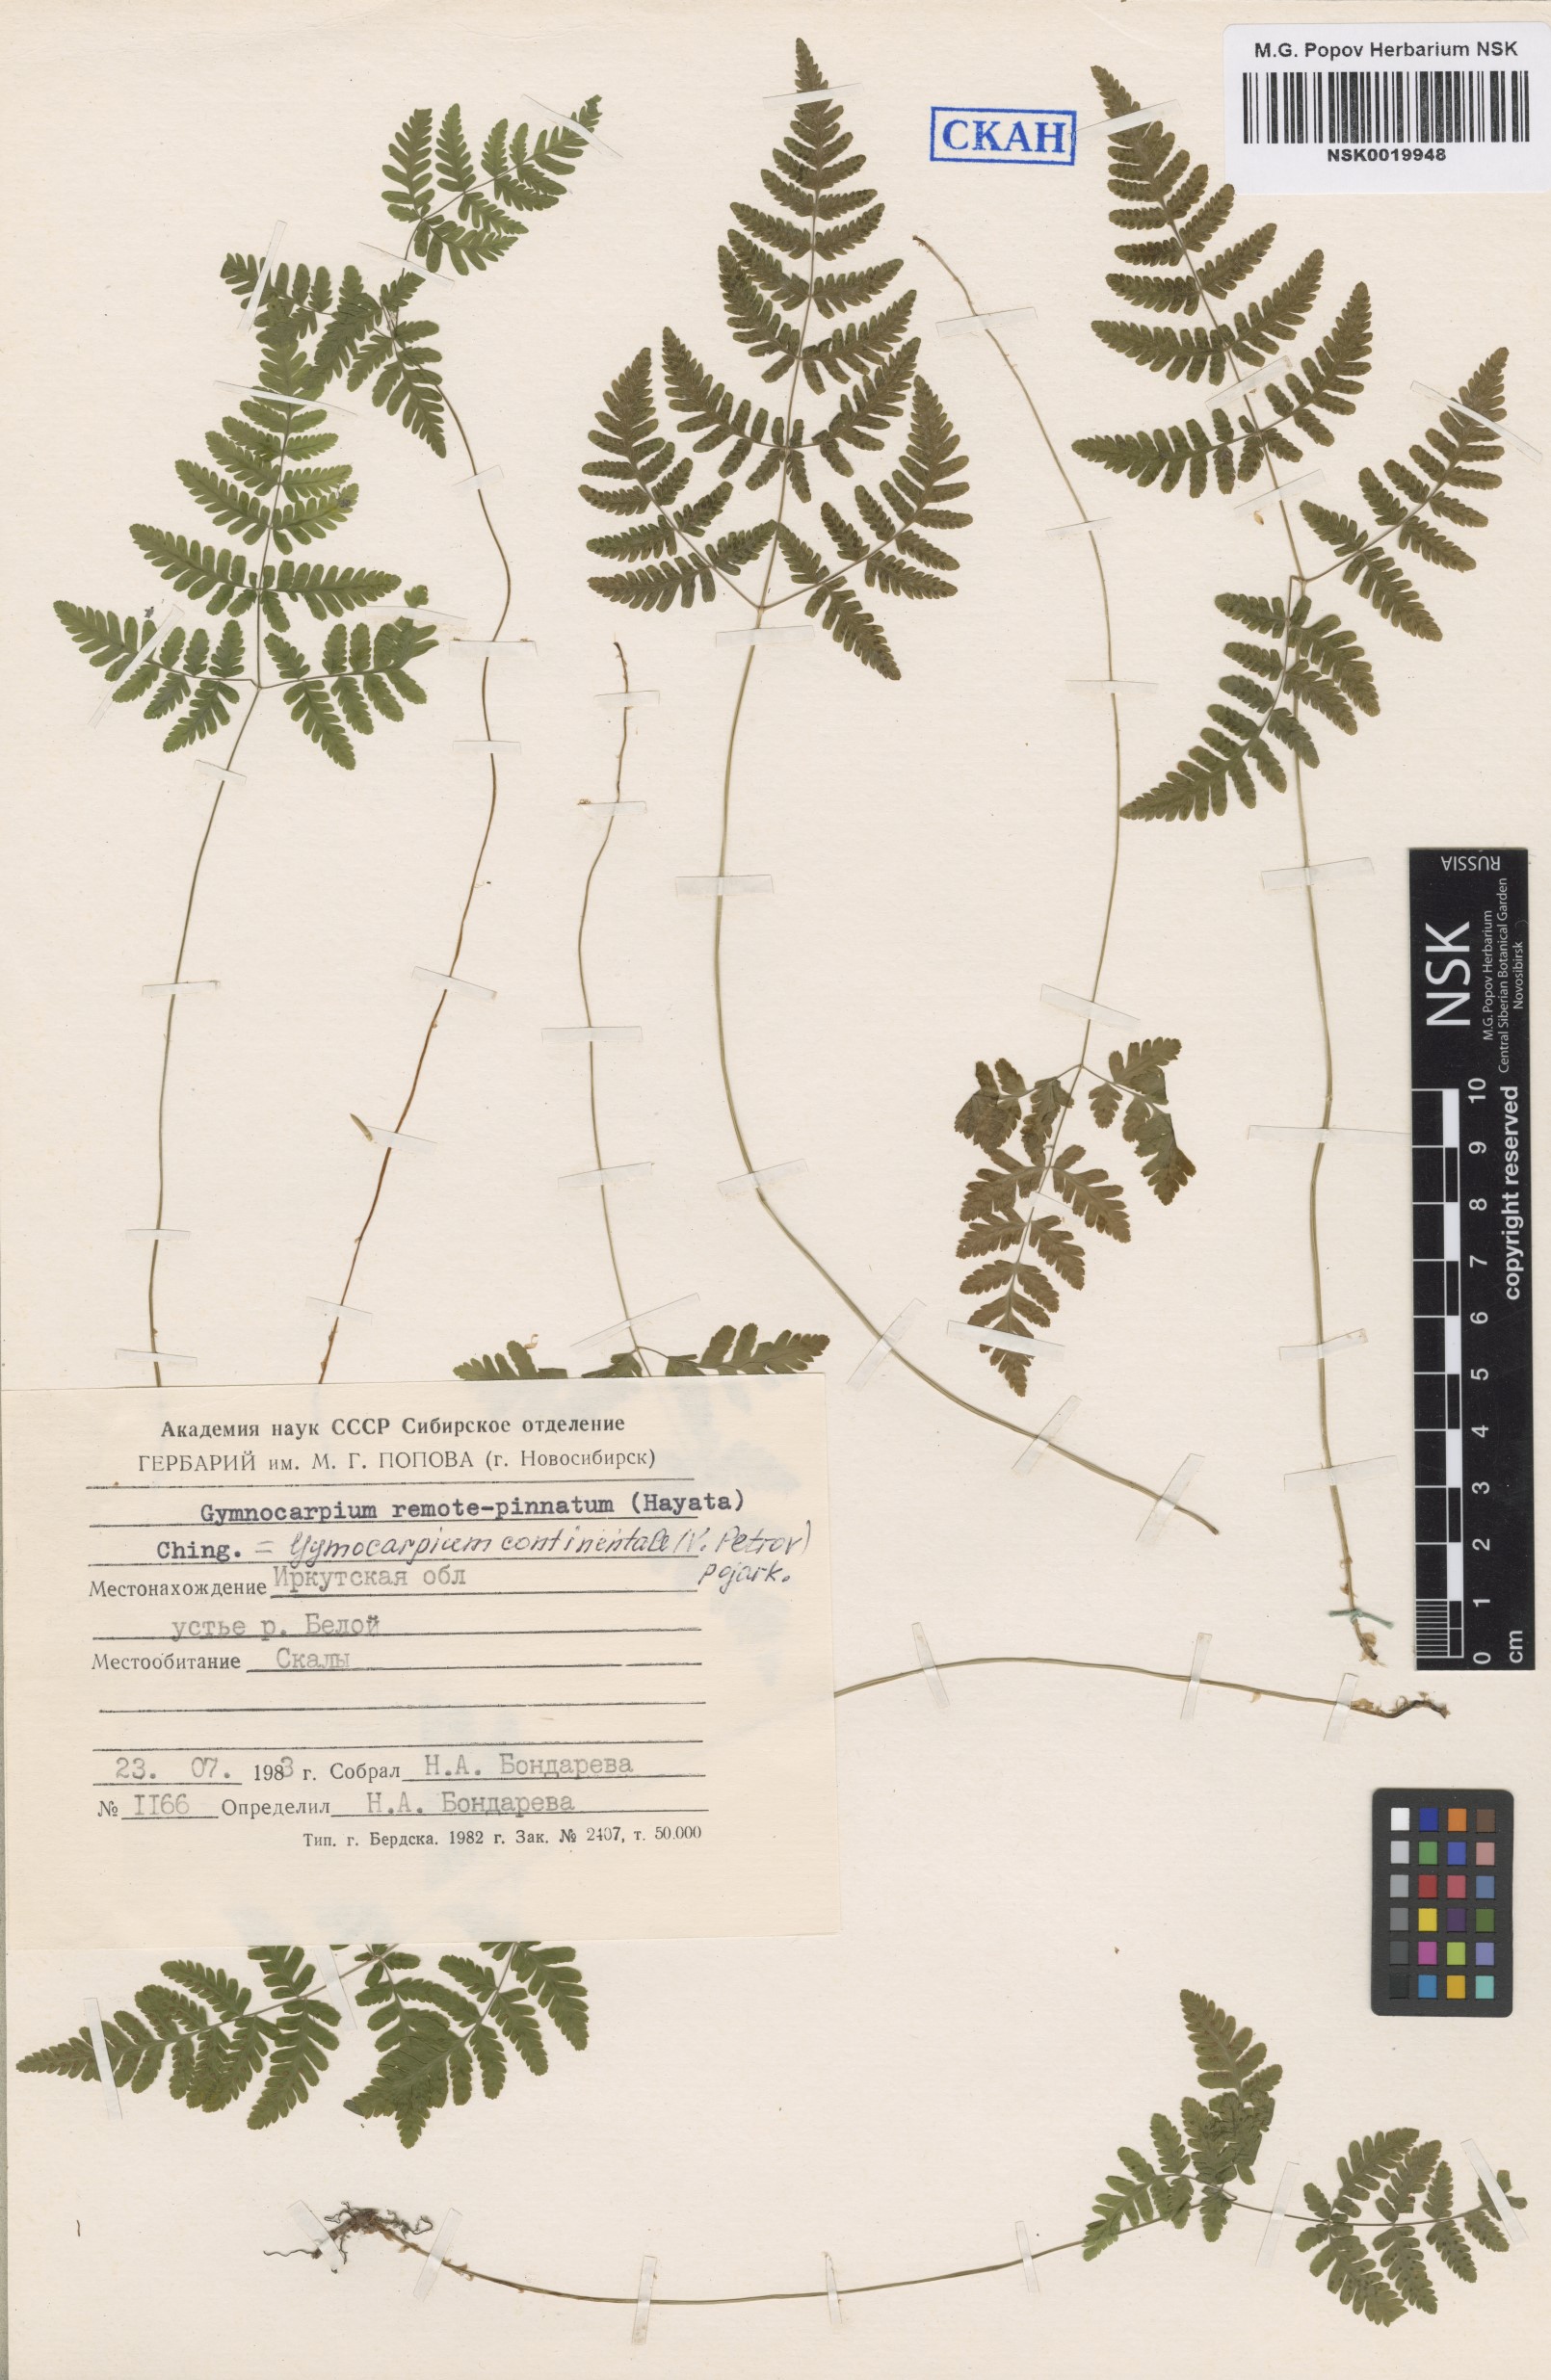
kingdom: Plantae
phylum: Tracheophyta
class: Polypodiopsida
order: Polypodiales
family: Cystopteridaceae
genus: Gymnocarpium
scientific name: Gymnocarpium continentale
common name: Asian oak fern
